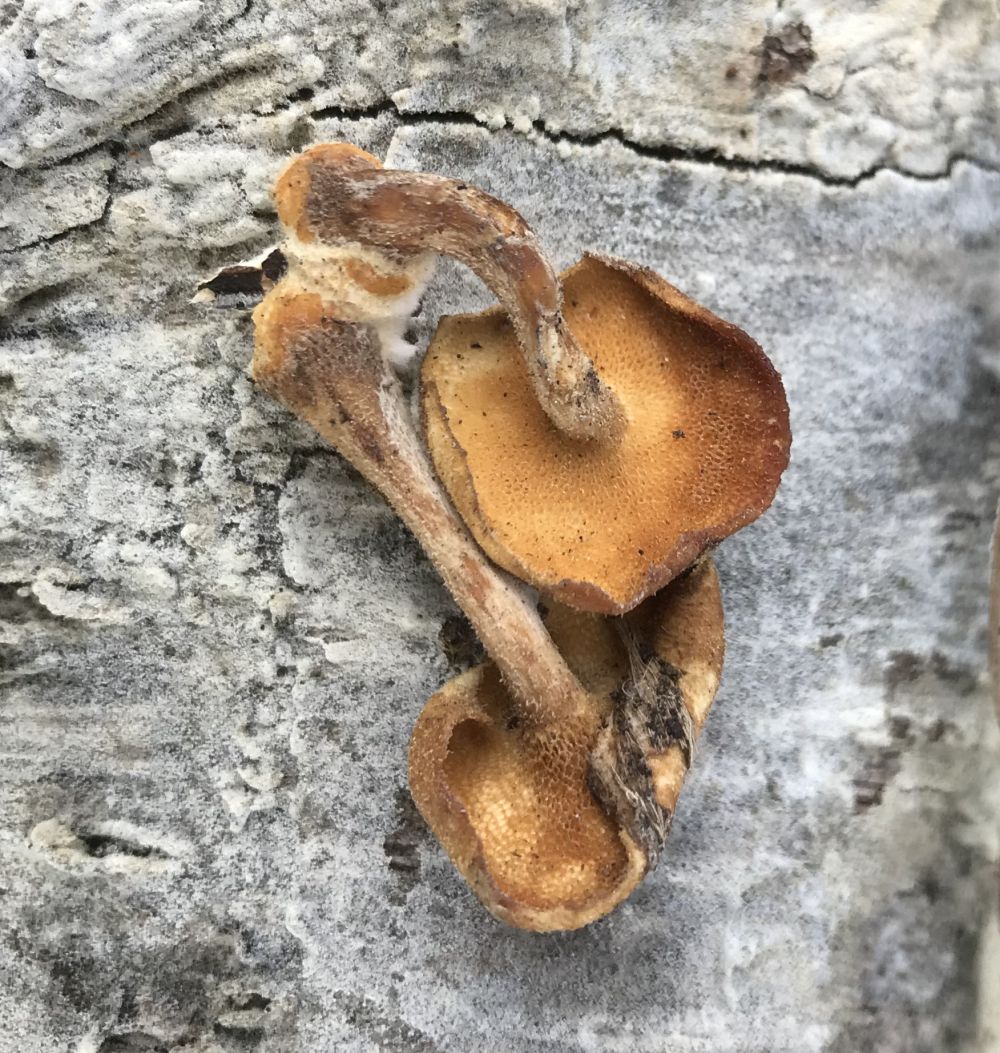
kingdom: Fungi
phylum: Basidiomycota
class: Agaricomycetes
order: Polyporales
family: Polyporaceae
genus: Lentinus
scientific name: Lentinus brumalis
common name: vinter-stilkporesvamp
